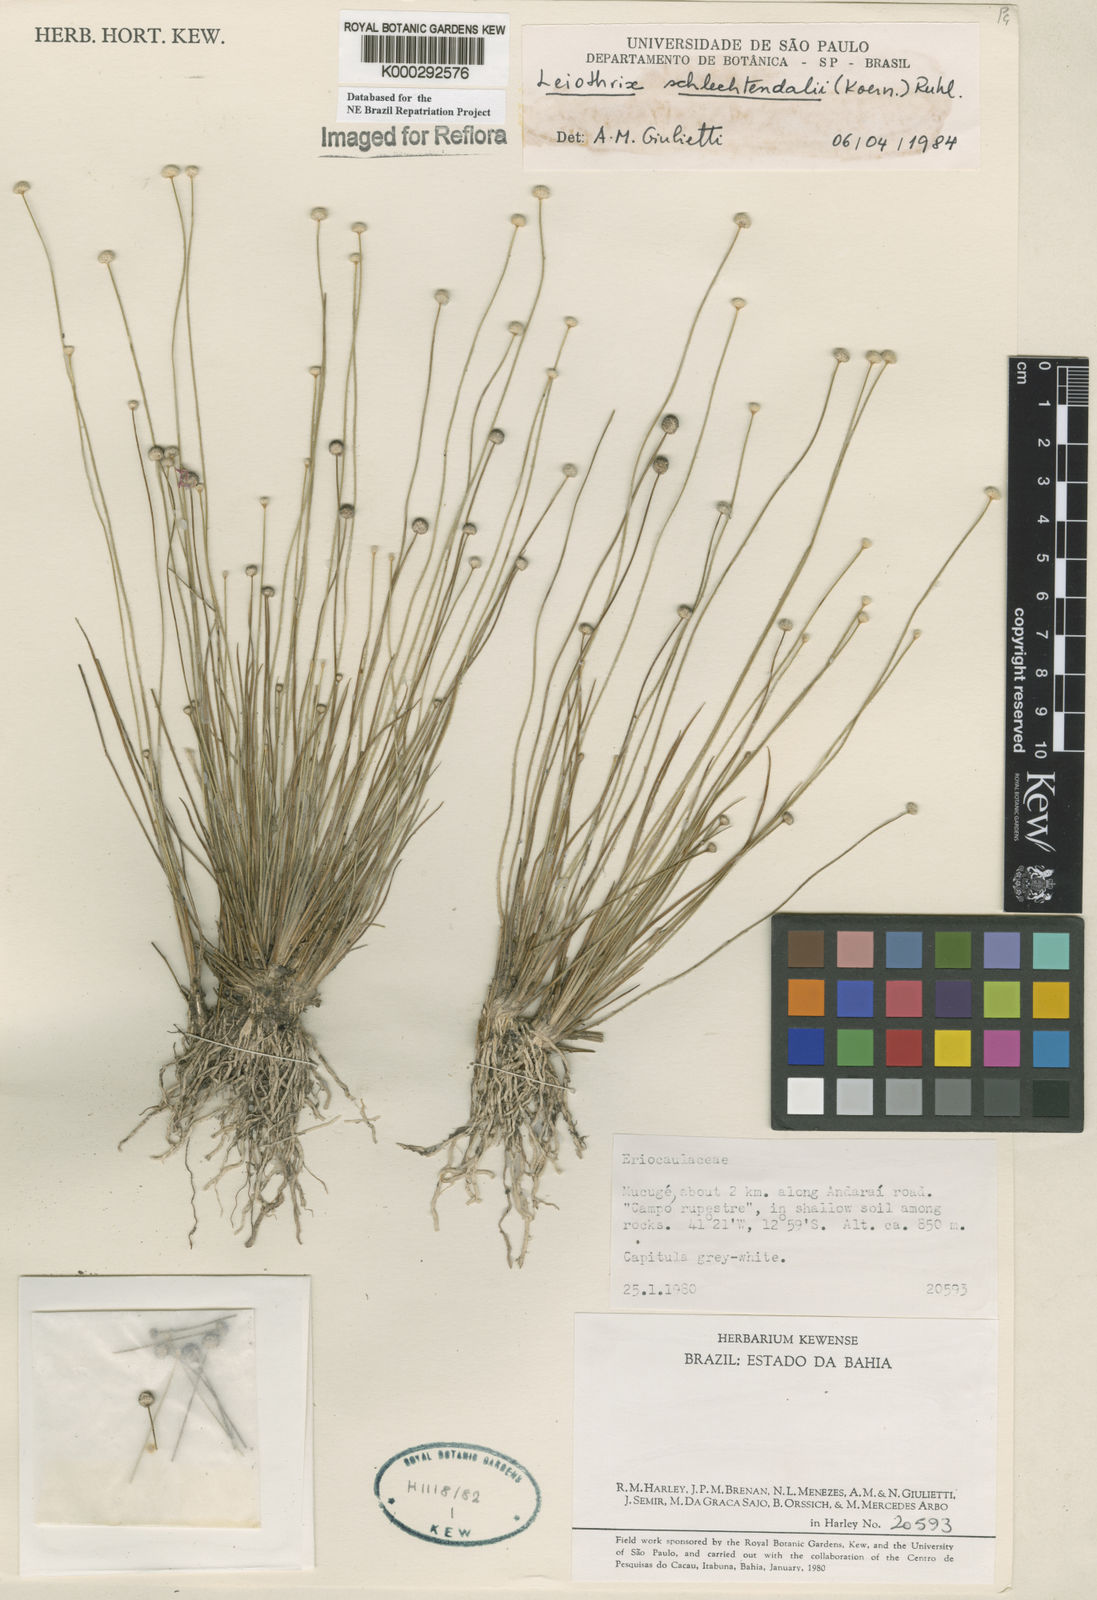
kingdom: Plantae
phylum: Tracheophyta
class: Liliopsida
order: Poales
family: Eriocaulaceae
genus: Leiothrix
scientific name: Leiothrix schlechtendalii
